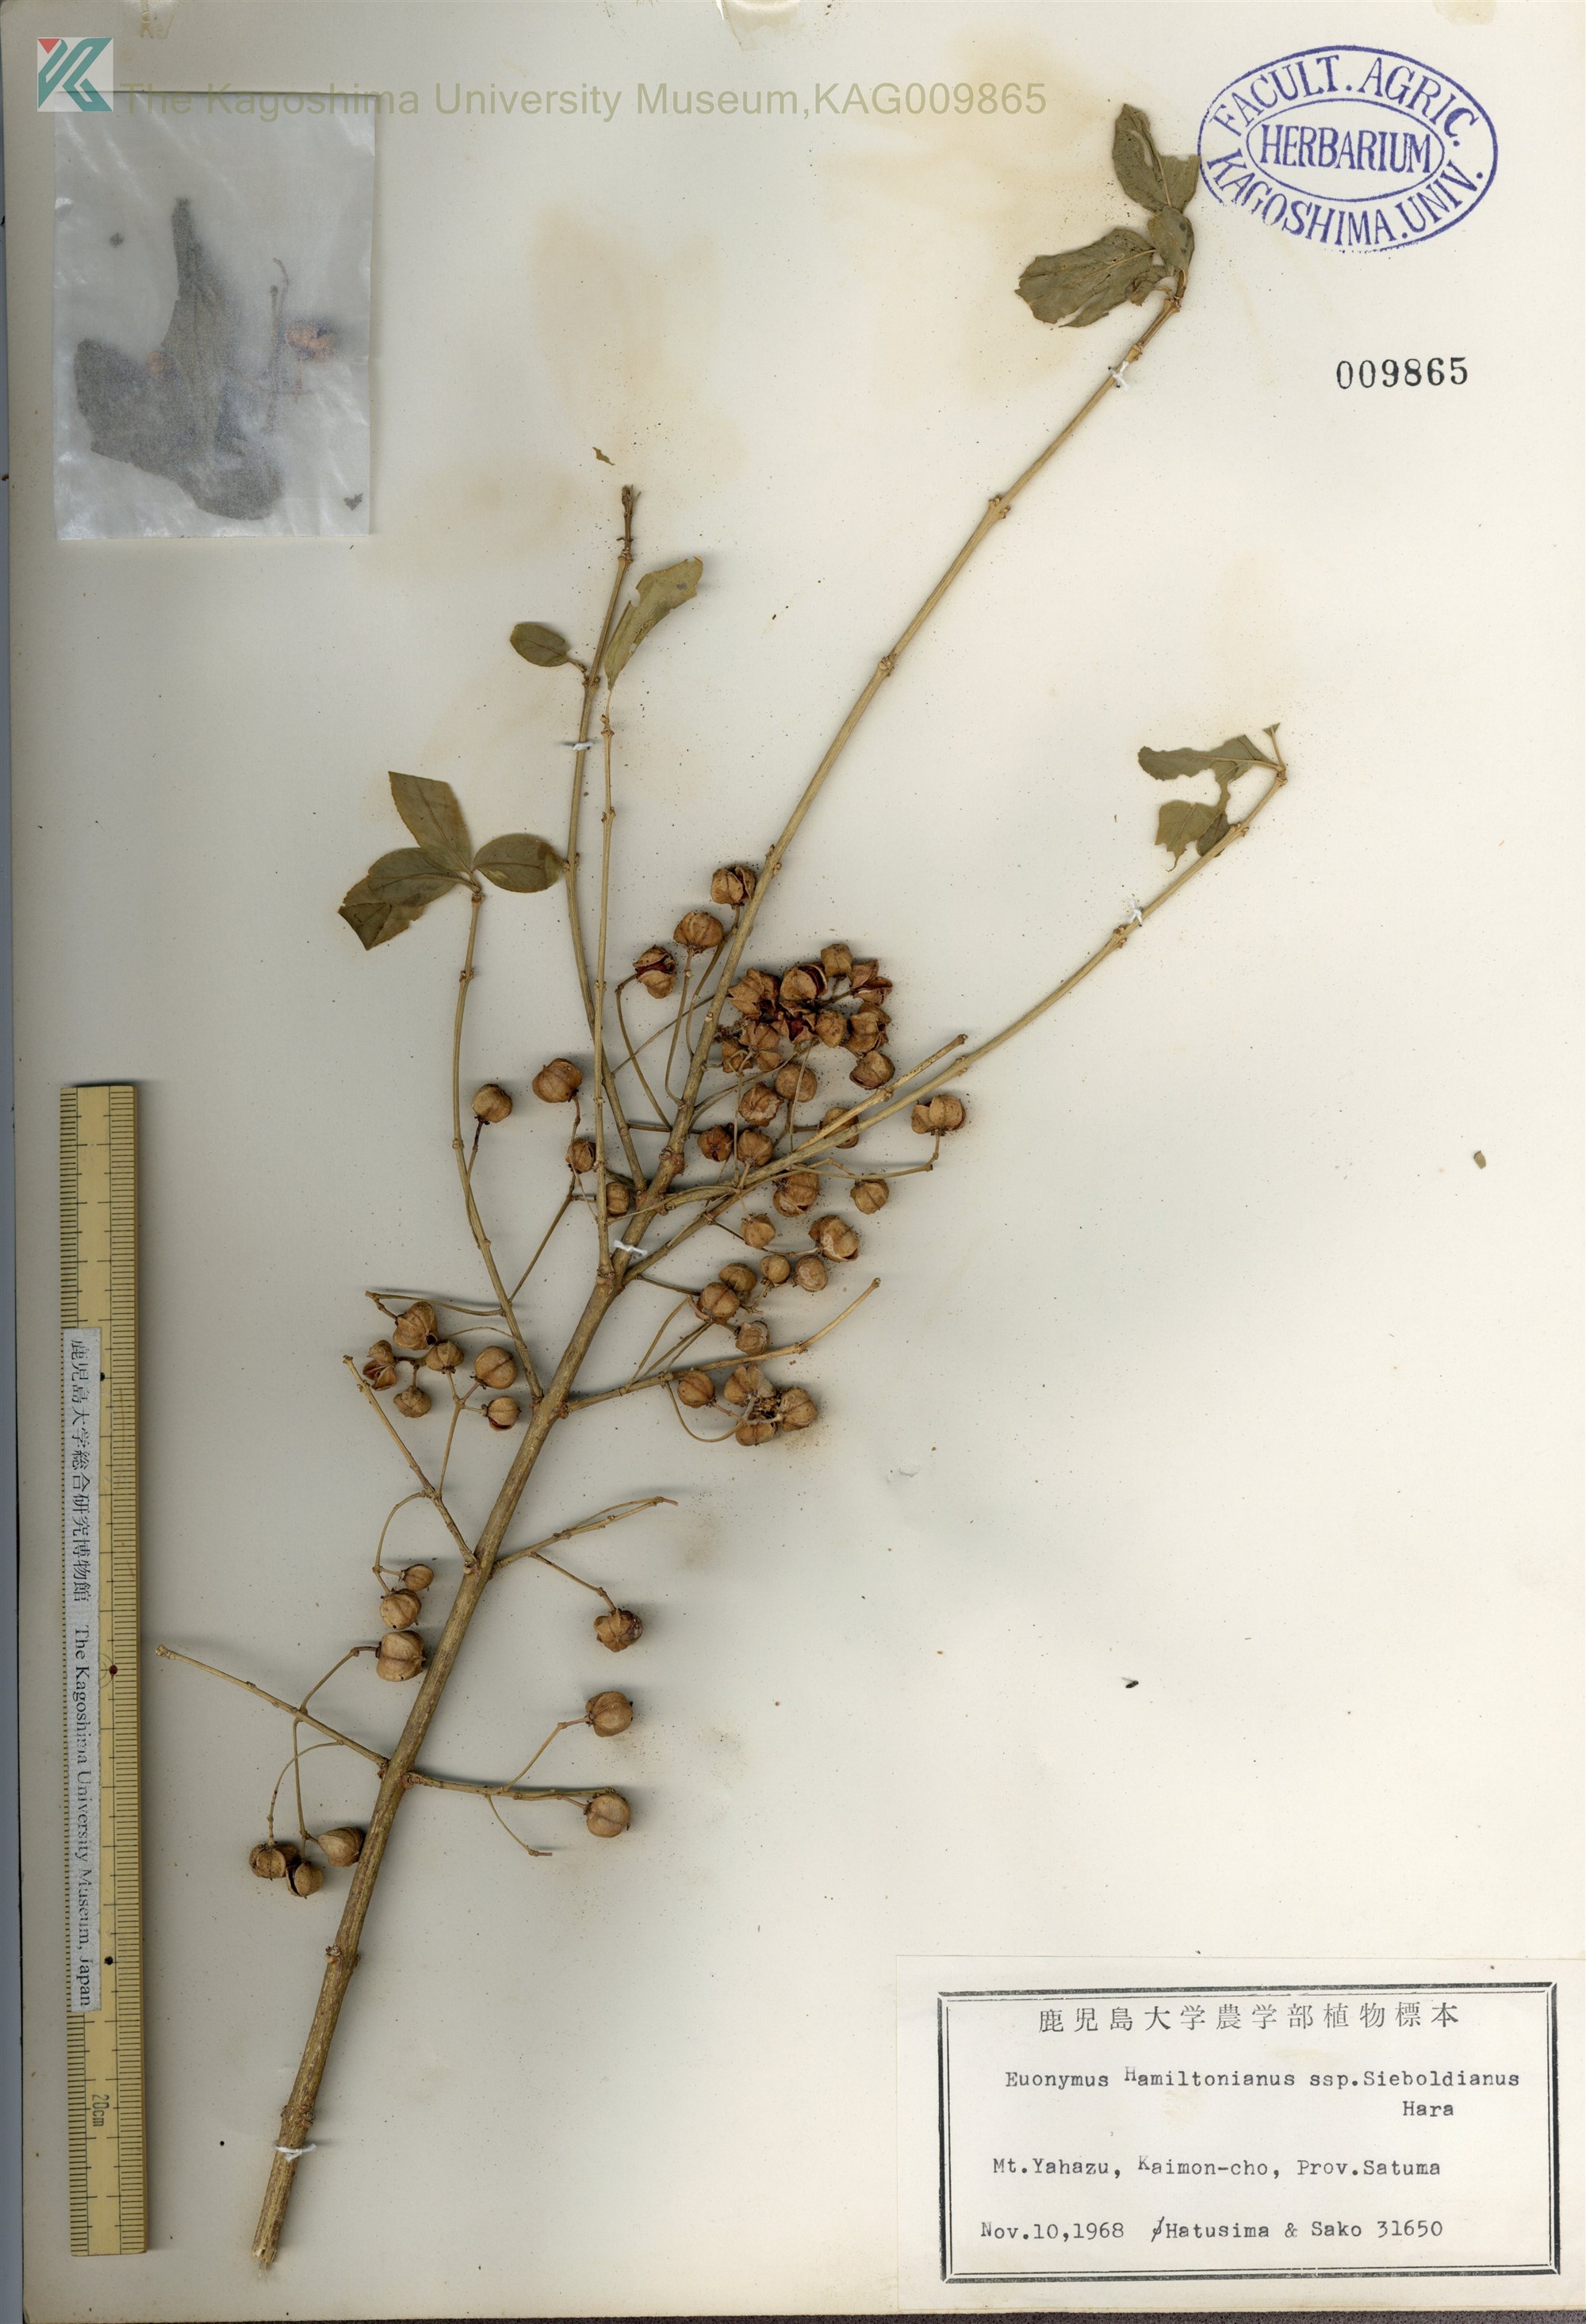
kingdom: Plantae
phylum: Tracheophyta
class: Magnoliopsida
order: Celastrales
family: Celastraceae
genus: Euonymus
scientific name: Euonymus hamiltonianus
